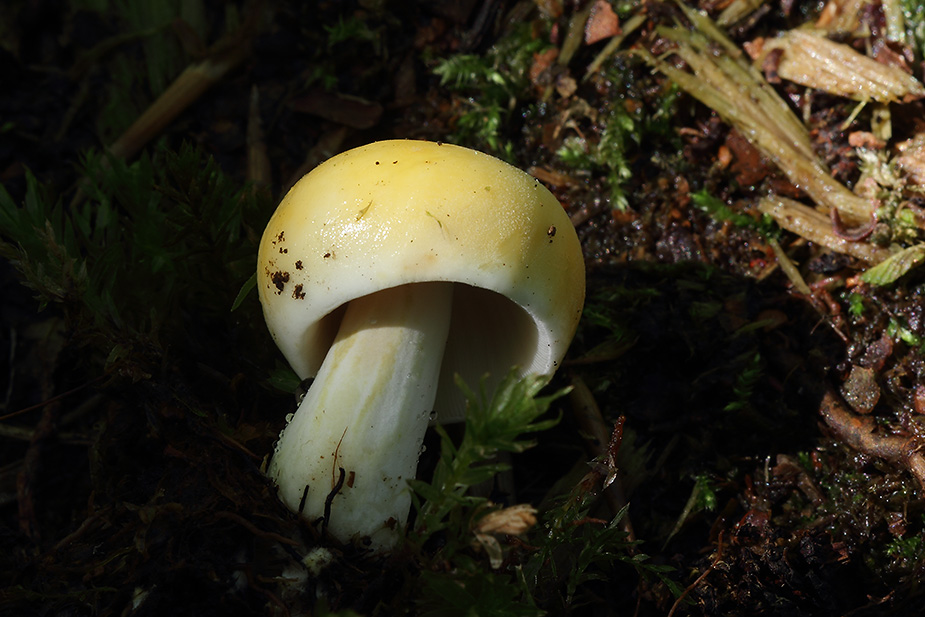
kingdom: Fungi
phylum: Basidiomycota
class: Agaricomycetes
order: Russulales
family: Russulaceae
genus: Russula
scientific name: Russula claroflava
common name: birke-skørhat
